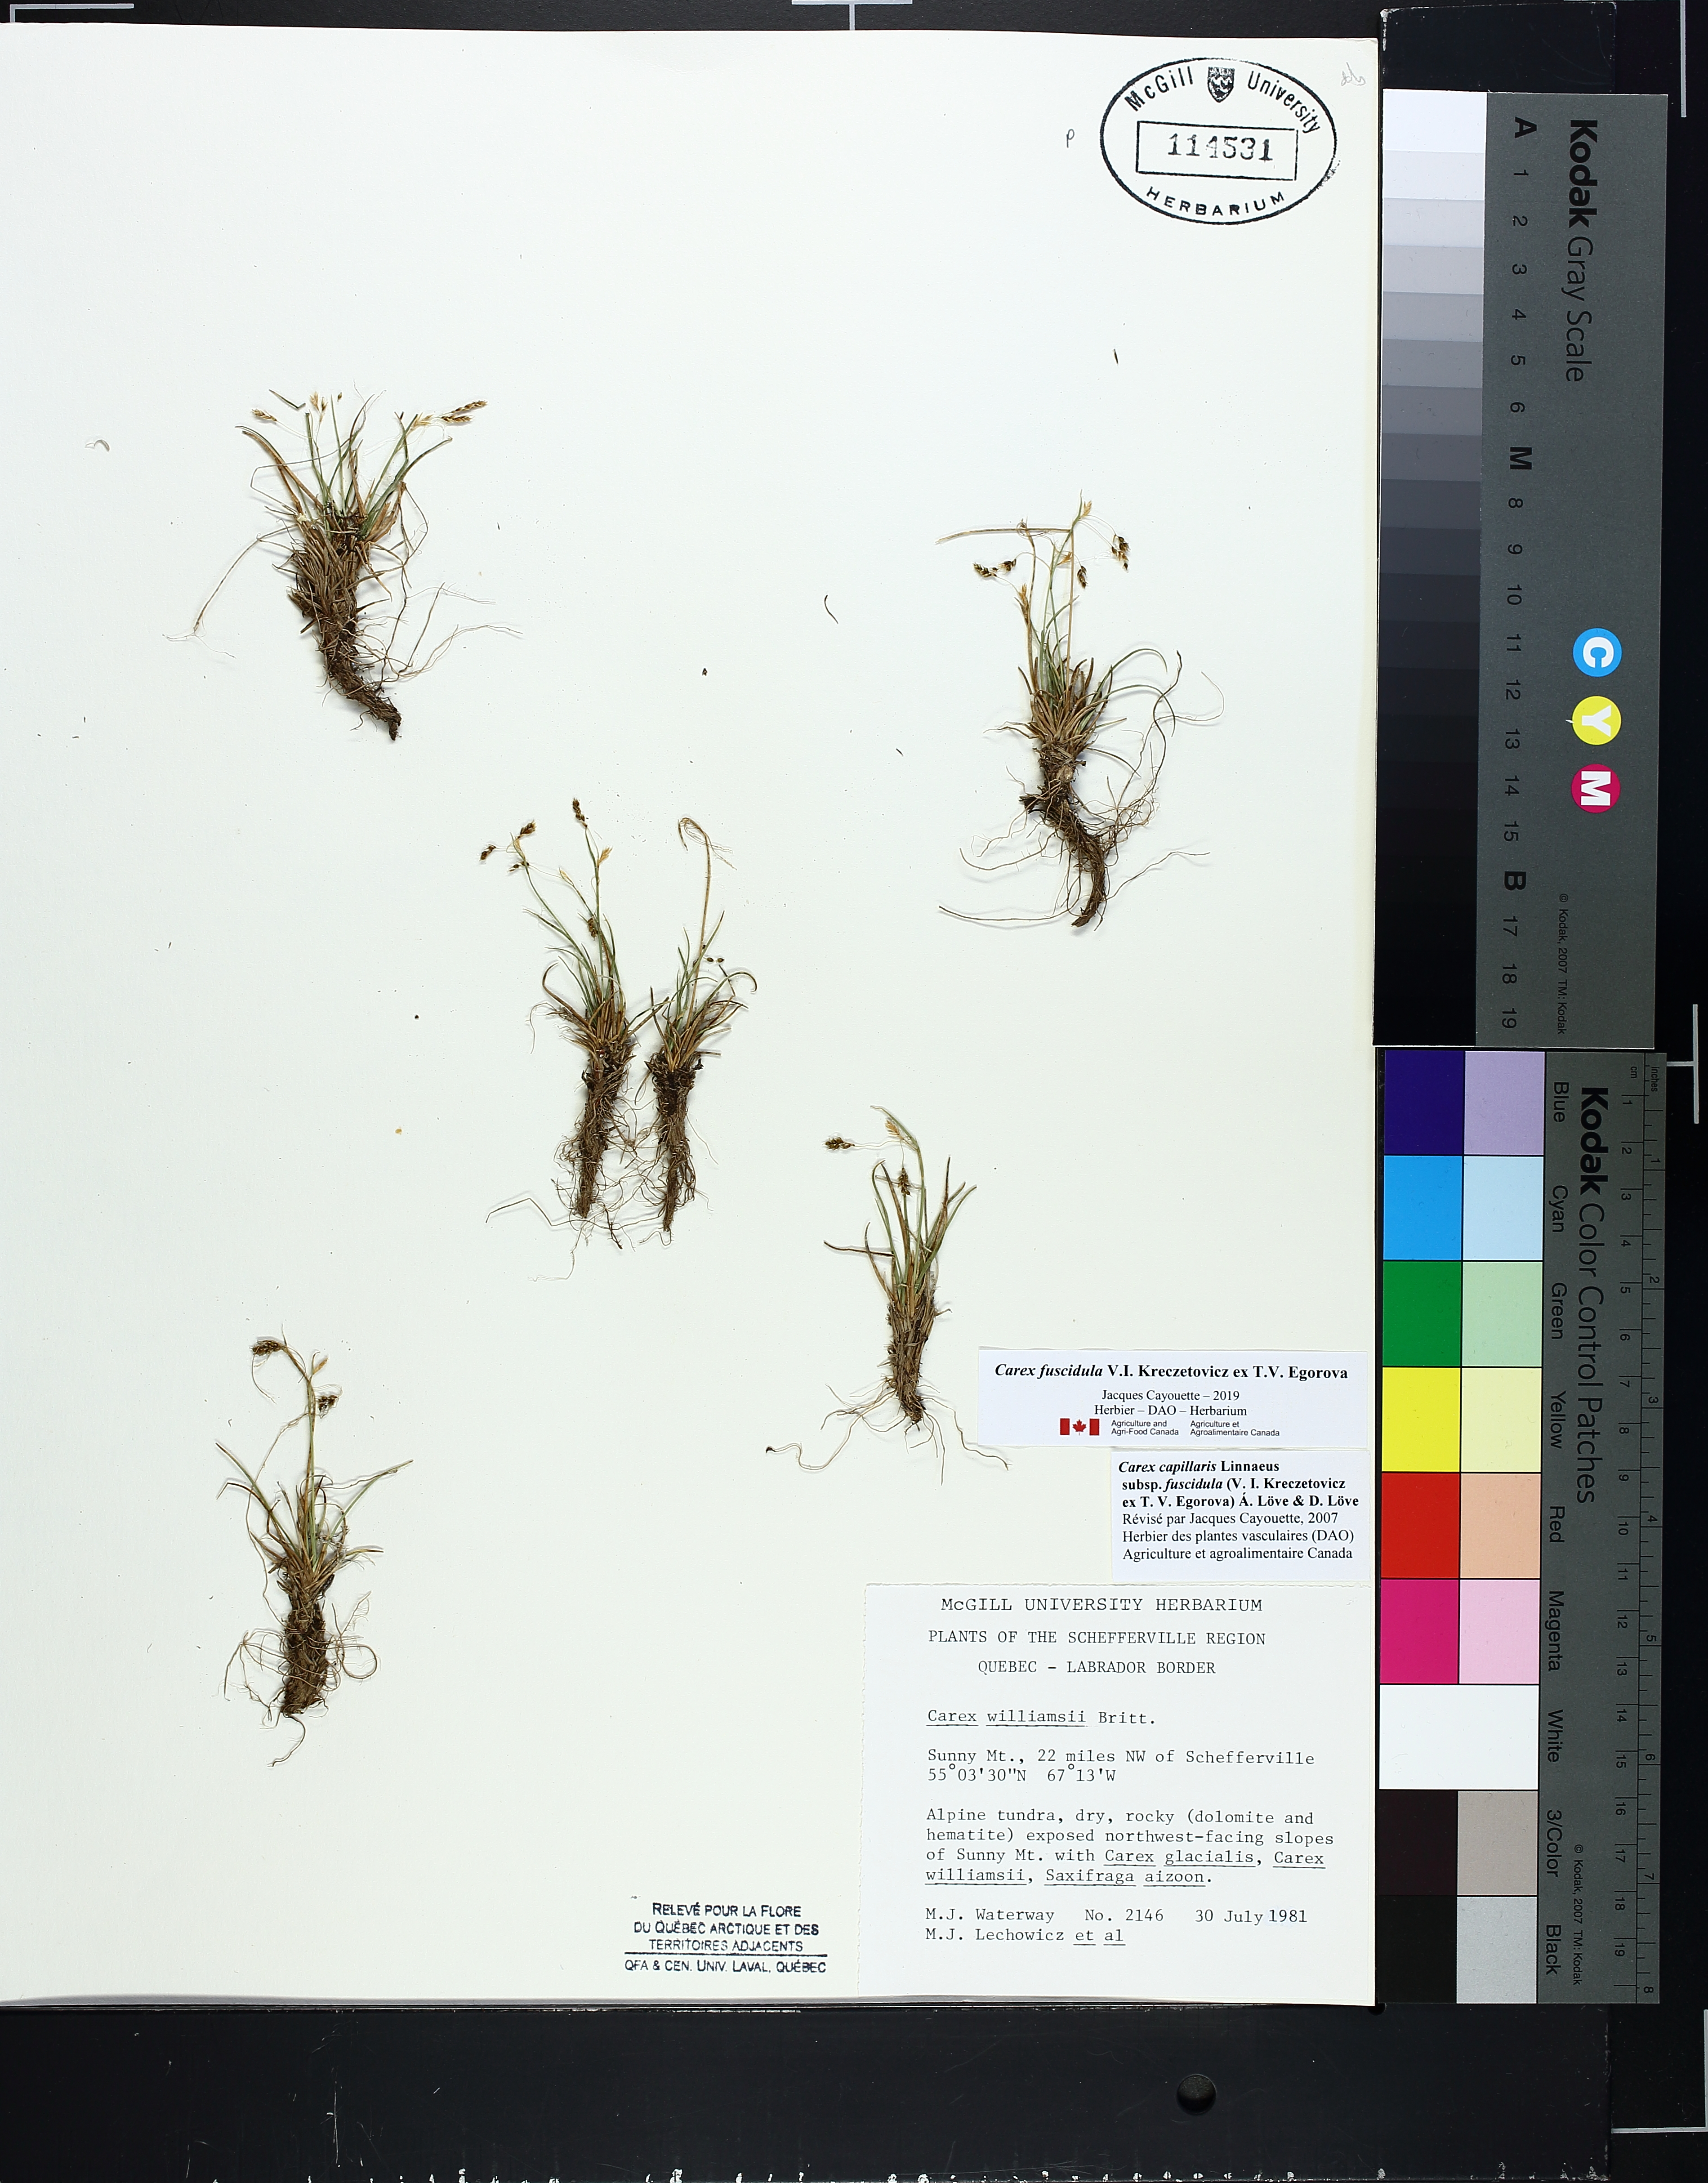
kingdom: Plantae
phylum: Tracheophyta
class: Liliopsida
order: Poales
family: Cyperaceae
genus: Carex
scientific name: Carex capillaris
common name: Hair sedge
